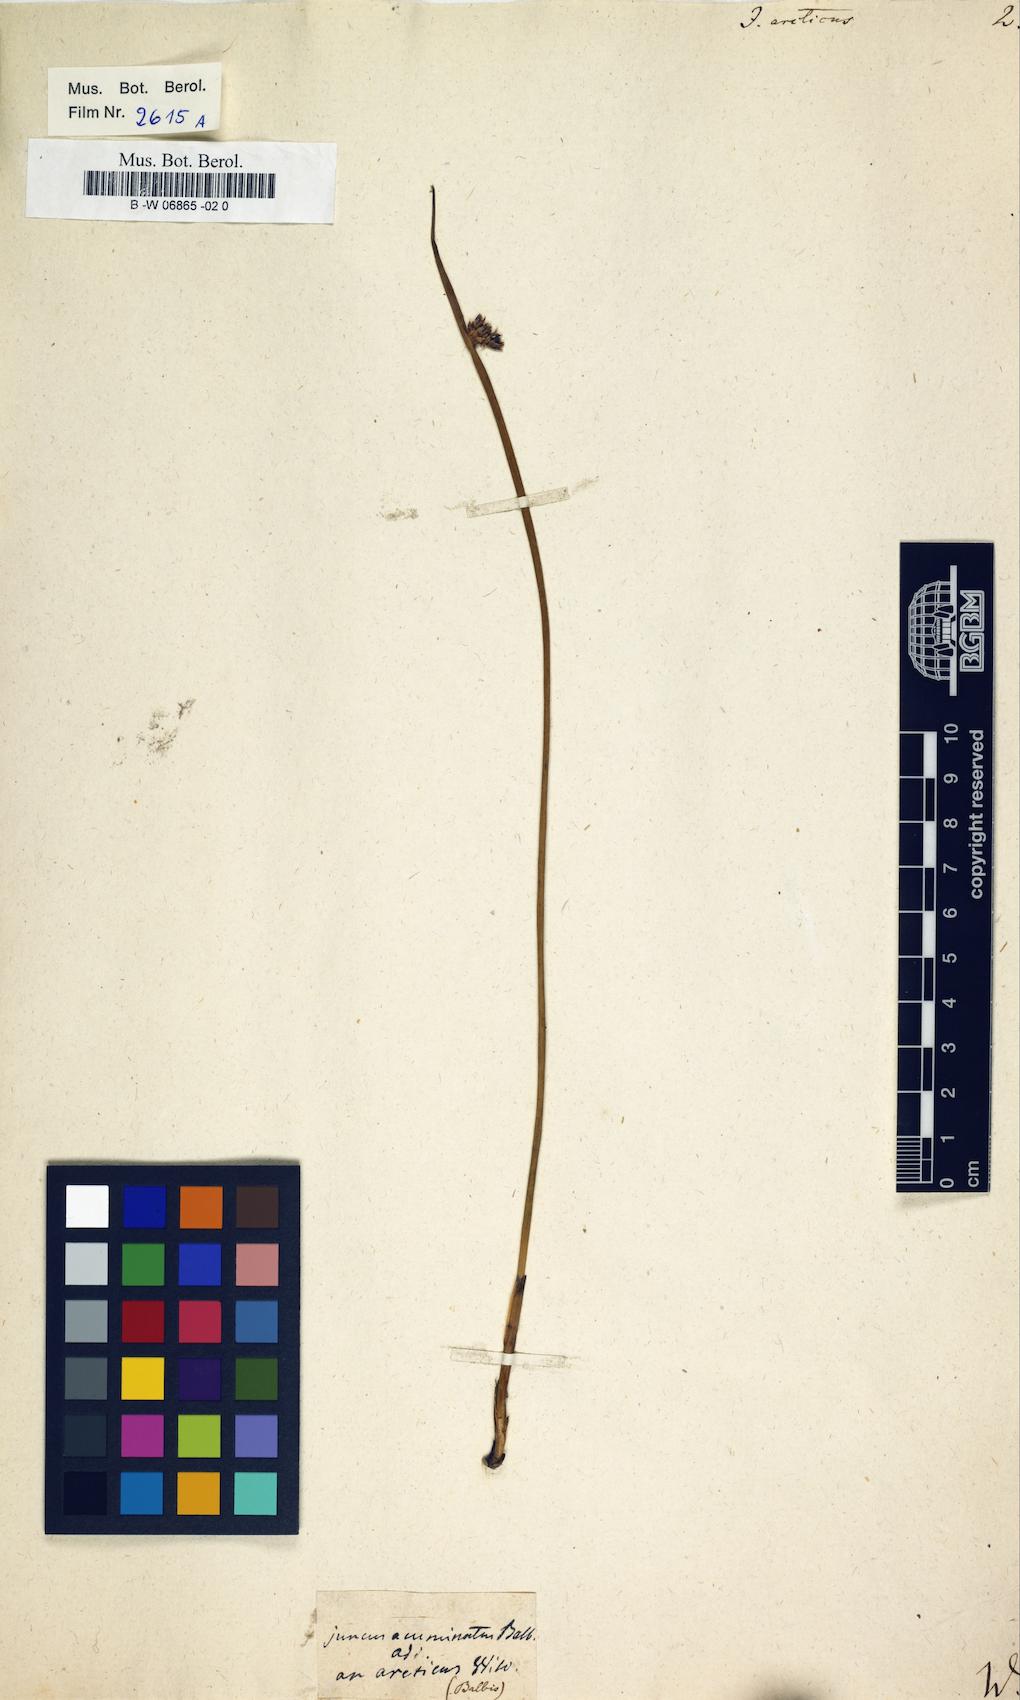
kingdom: Plantae
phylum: Tracheophyta
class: Liliopsida
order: Poales
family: Juncaceae
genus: Juncus
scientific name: Juncus arcticus
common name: Arctic rush
